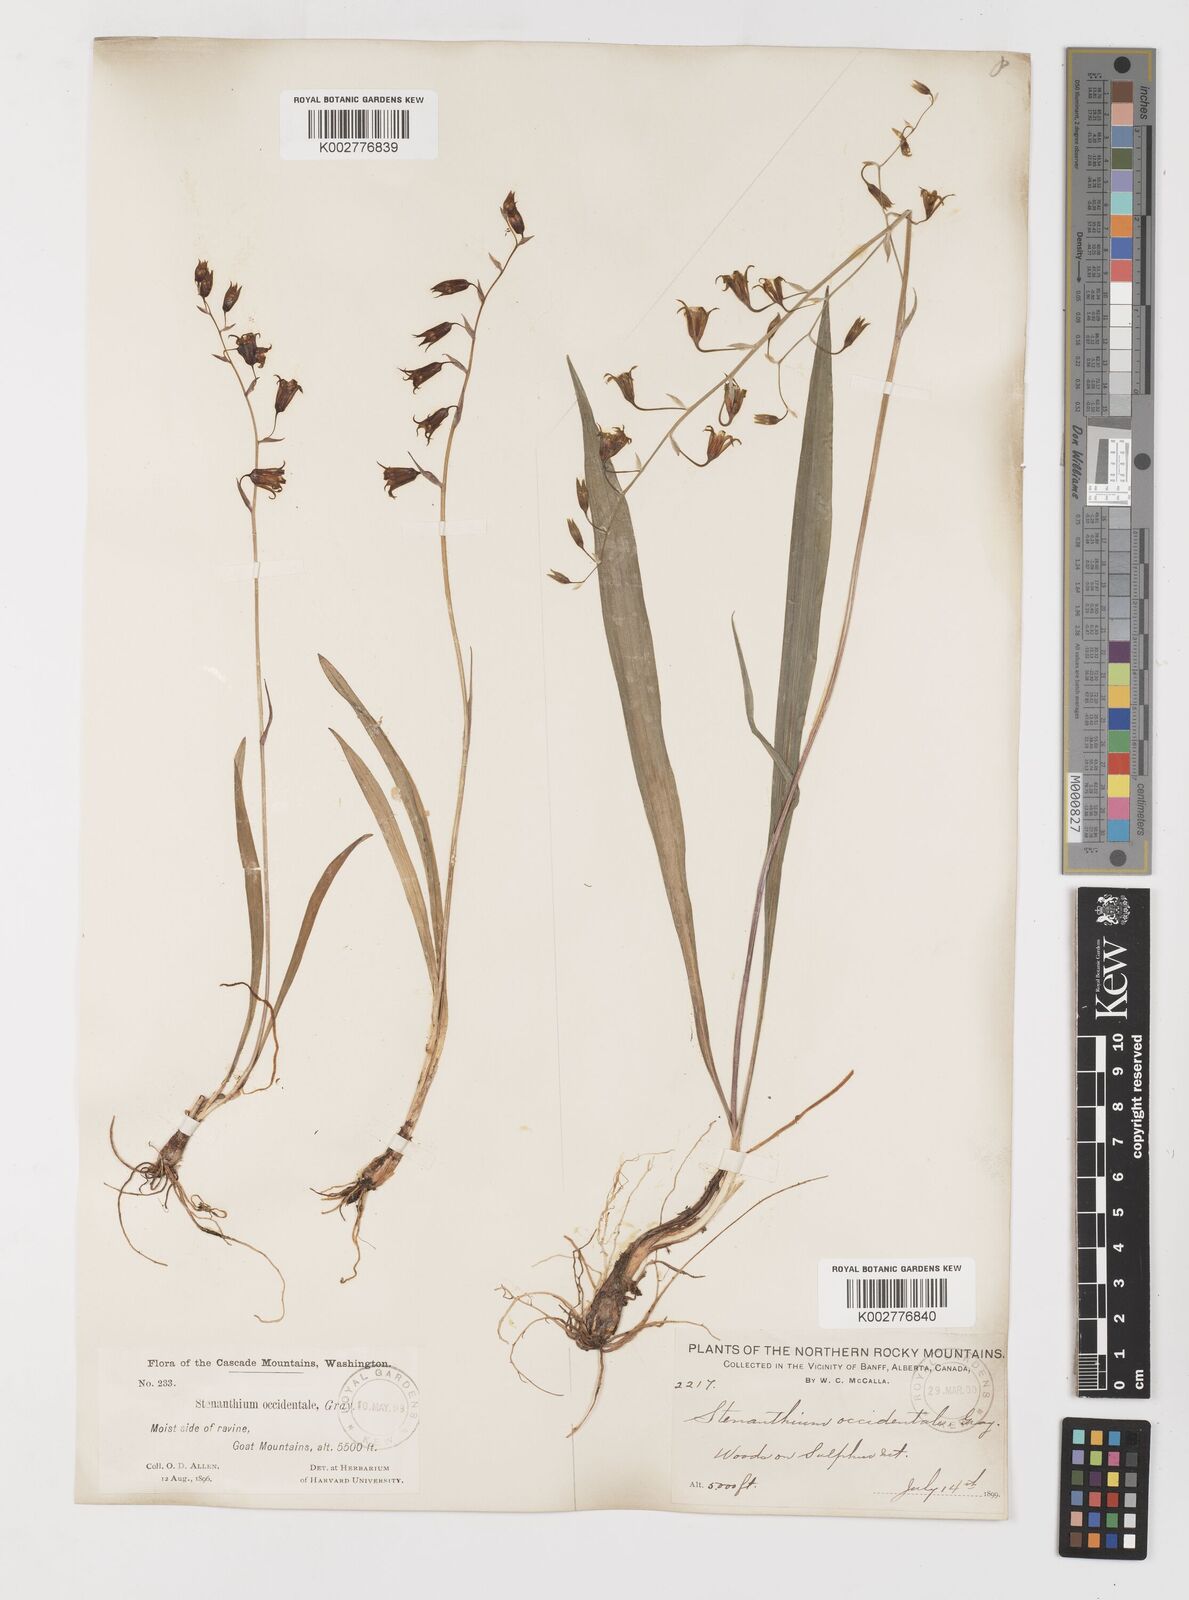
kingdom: Plantae
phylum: Tracheophyta
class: Liliopsida
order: Liliales
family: Melanthiaceae
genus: Anticlea
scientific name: Anticlea occidentalis
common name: Bronze-bells
